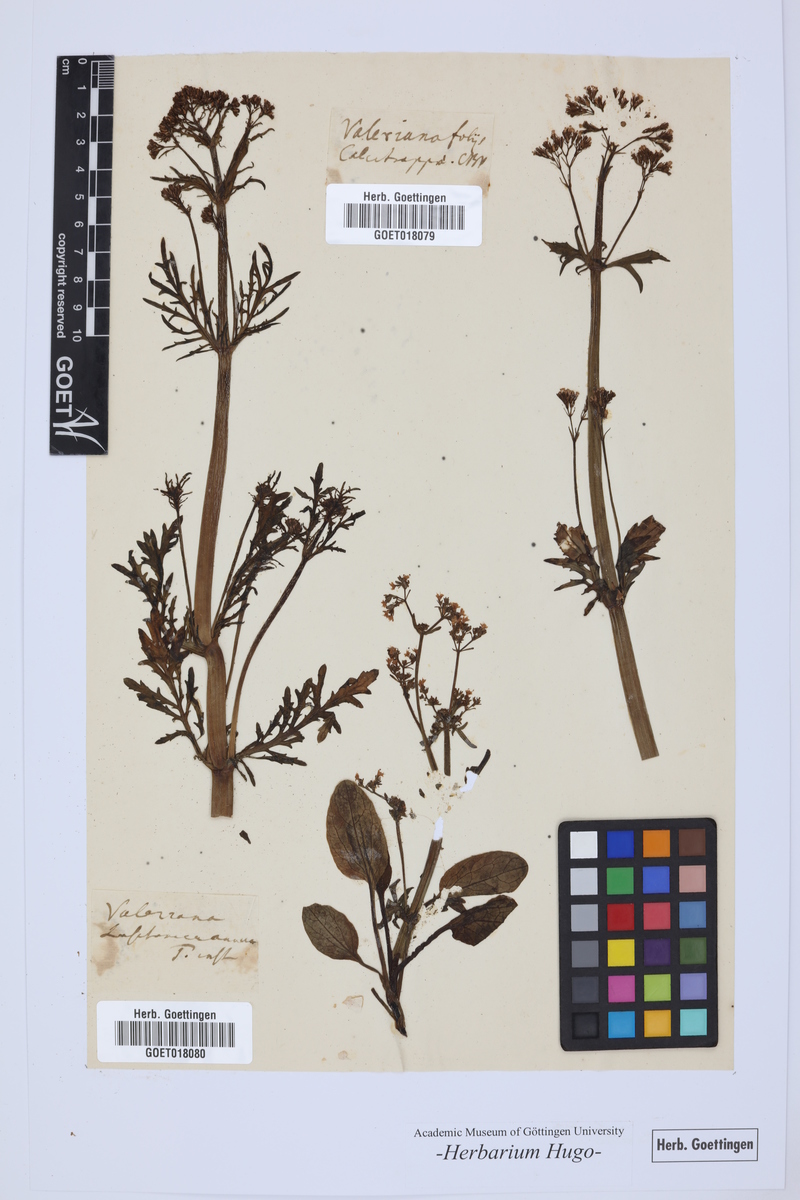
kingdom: Plantae
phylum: Tracheophyta
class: Magnoliopsida
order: Dipsacales
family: Caprifoliaceae
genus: Centranthus
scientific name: Centranthus calcitrapae
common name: Annual valerian
